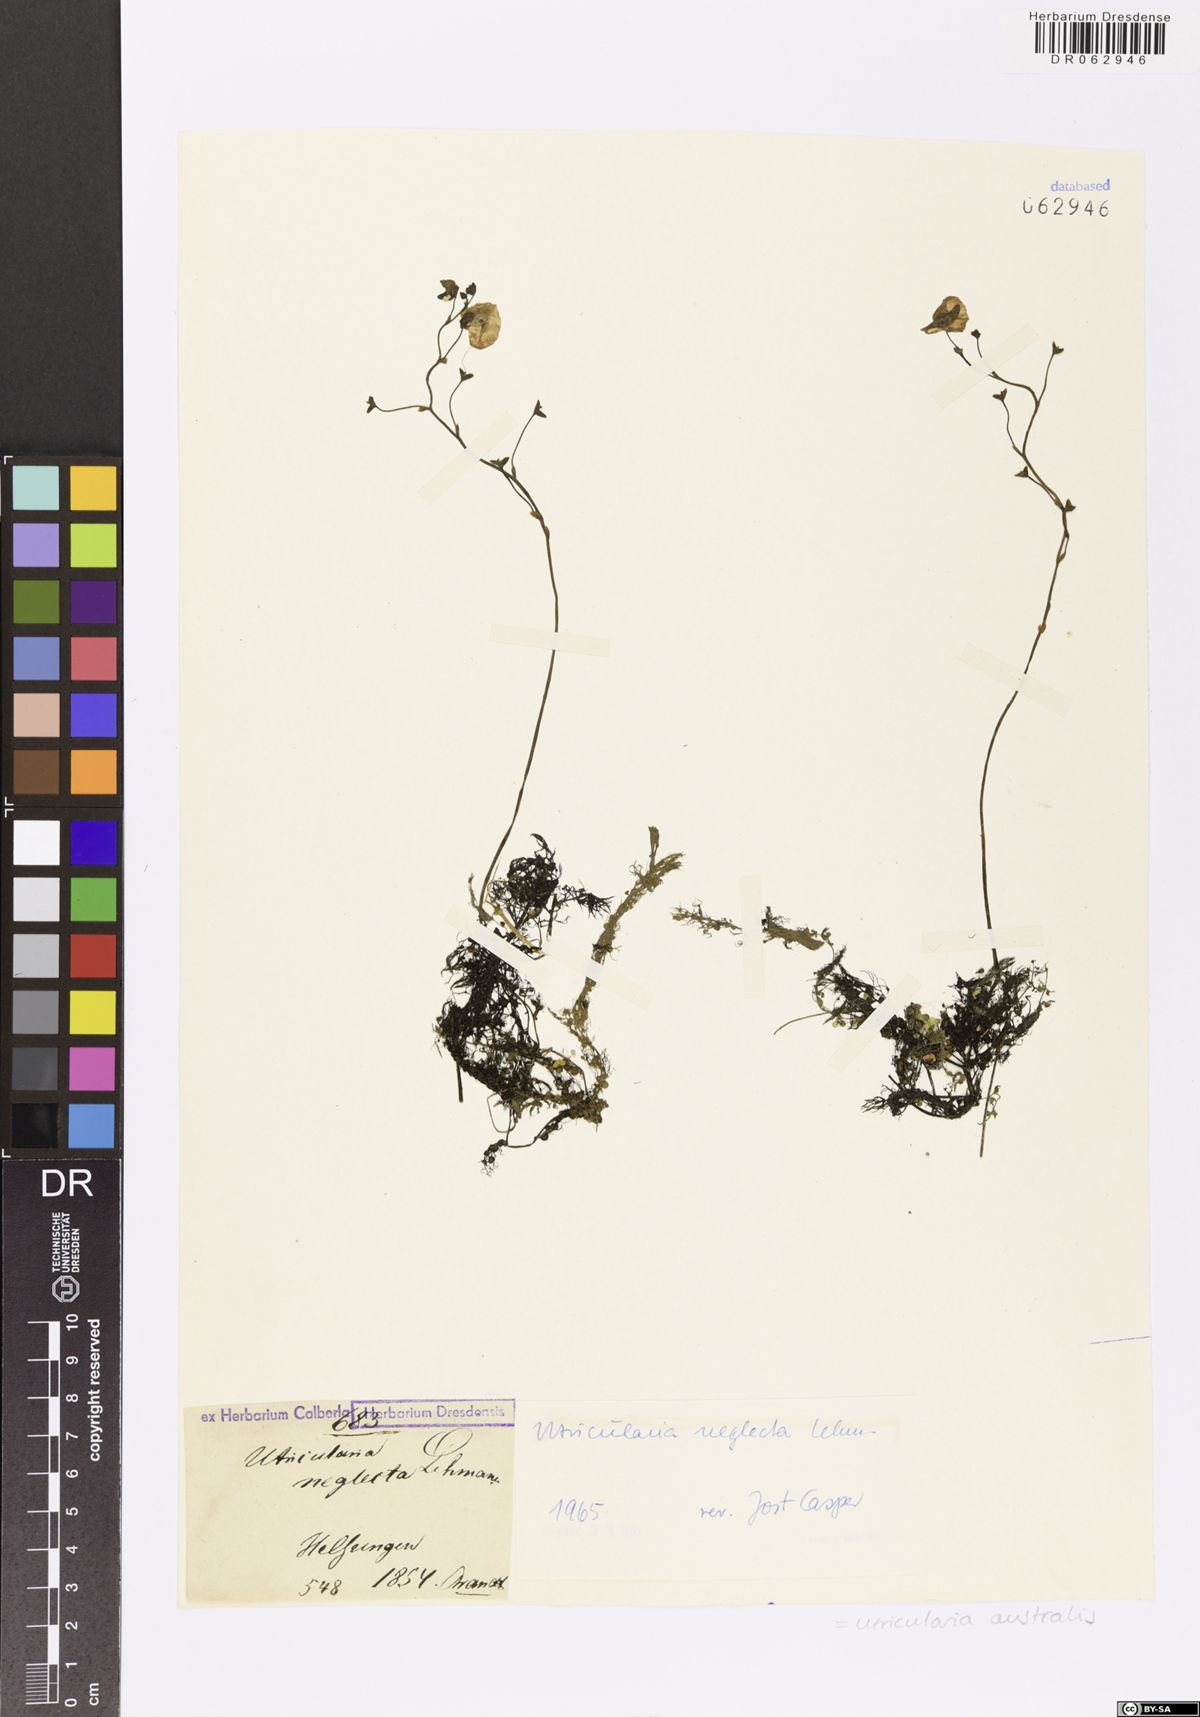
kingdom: Plantae
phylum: Tracheophyta
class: Magnoliopsida
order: Lamiales
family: Lentibulariaceae
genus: Utricularia
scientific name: Utricularia australis
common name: Bladderwort
